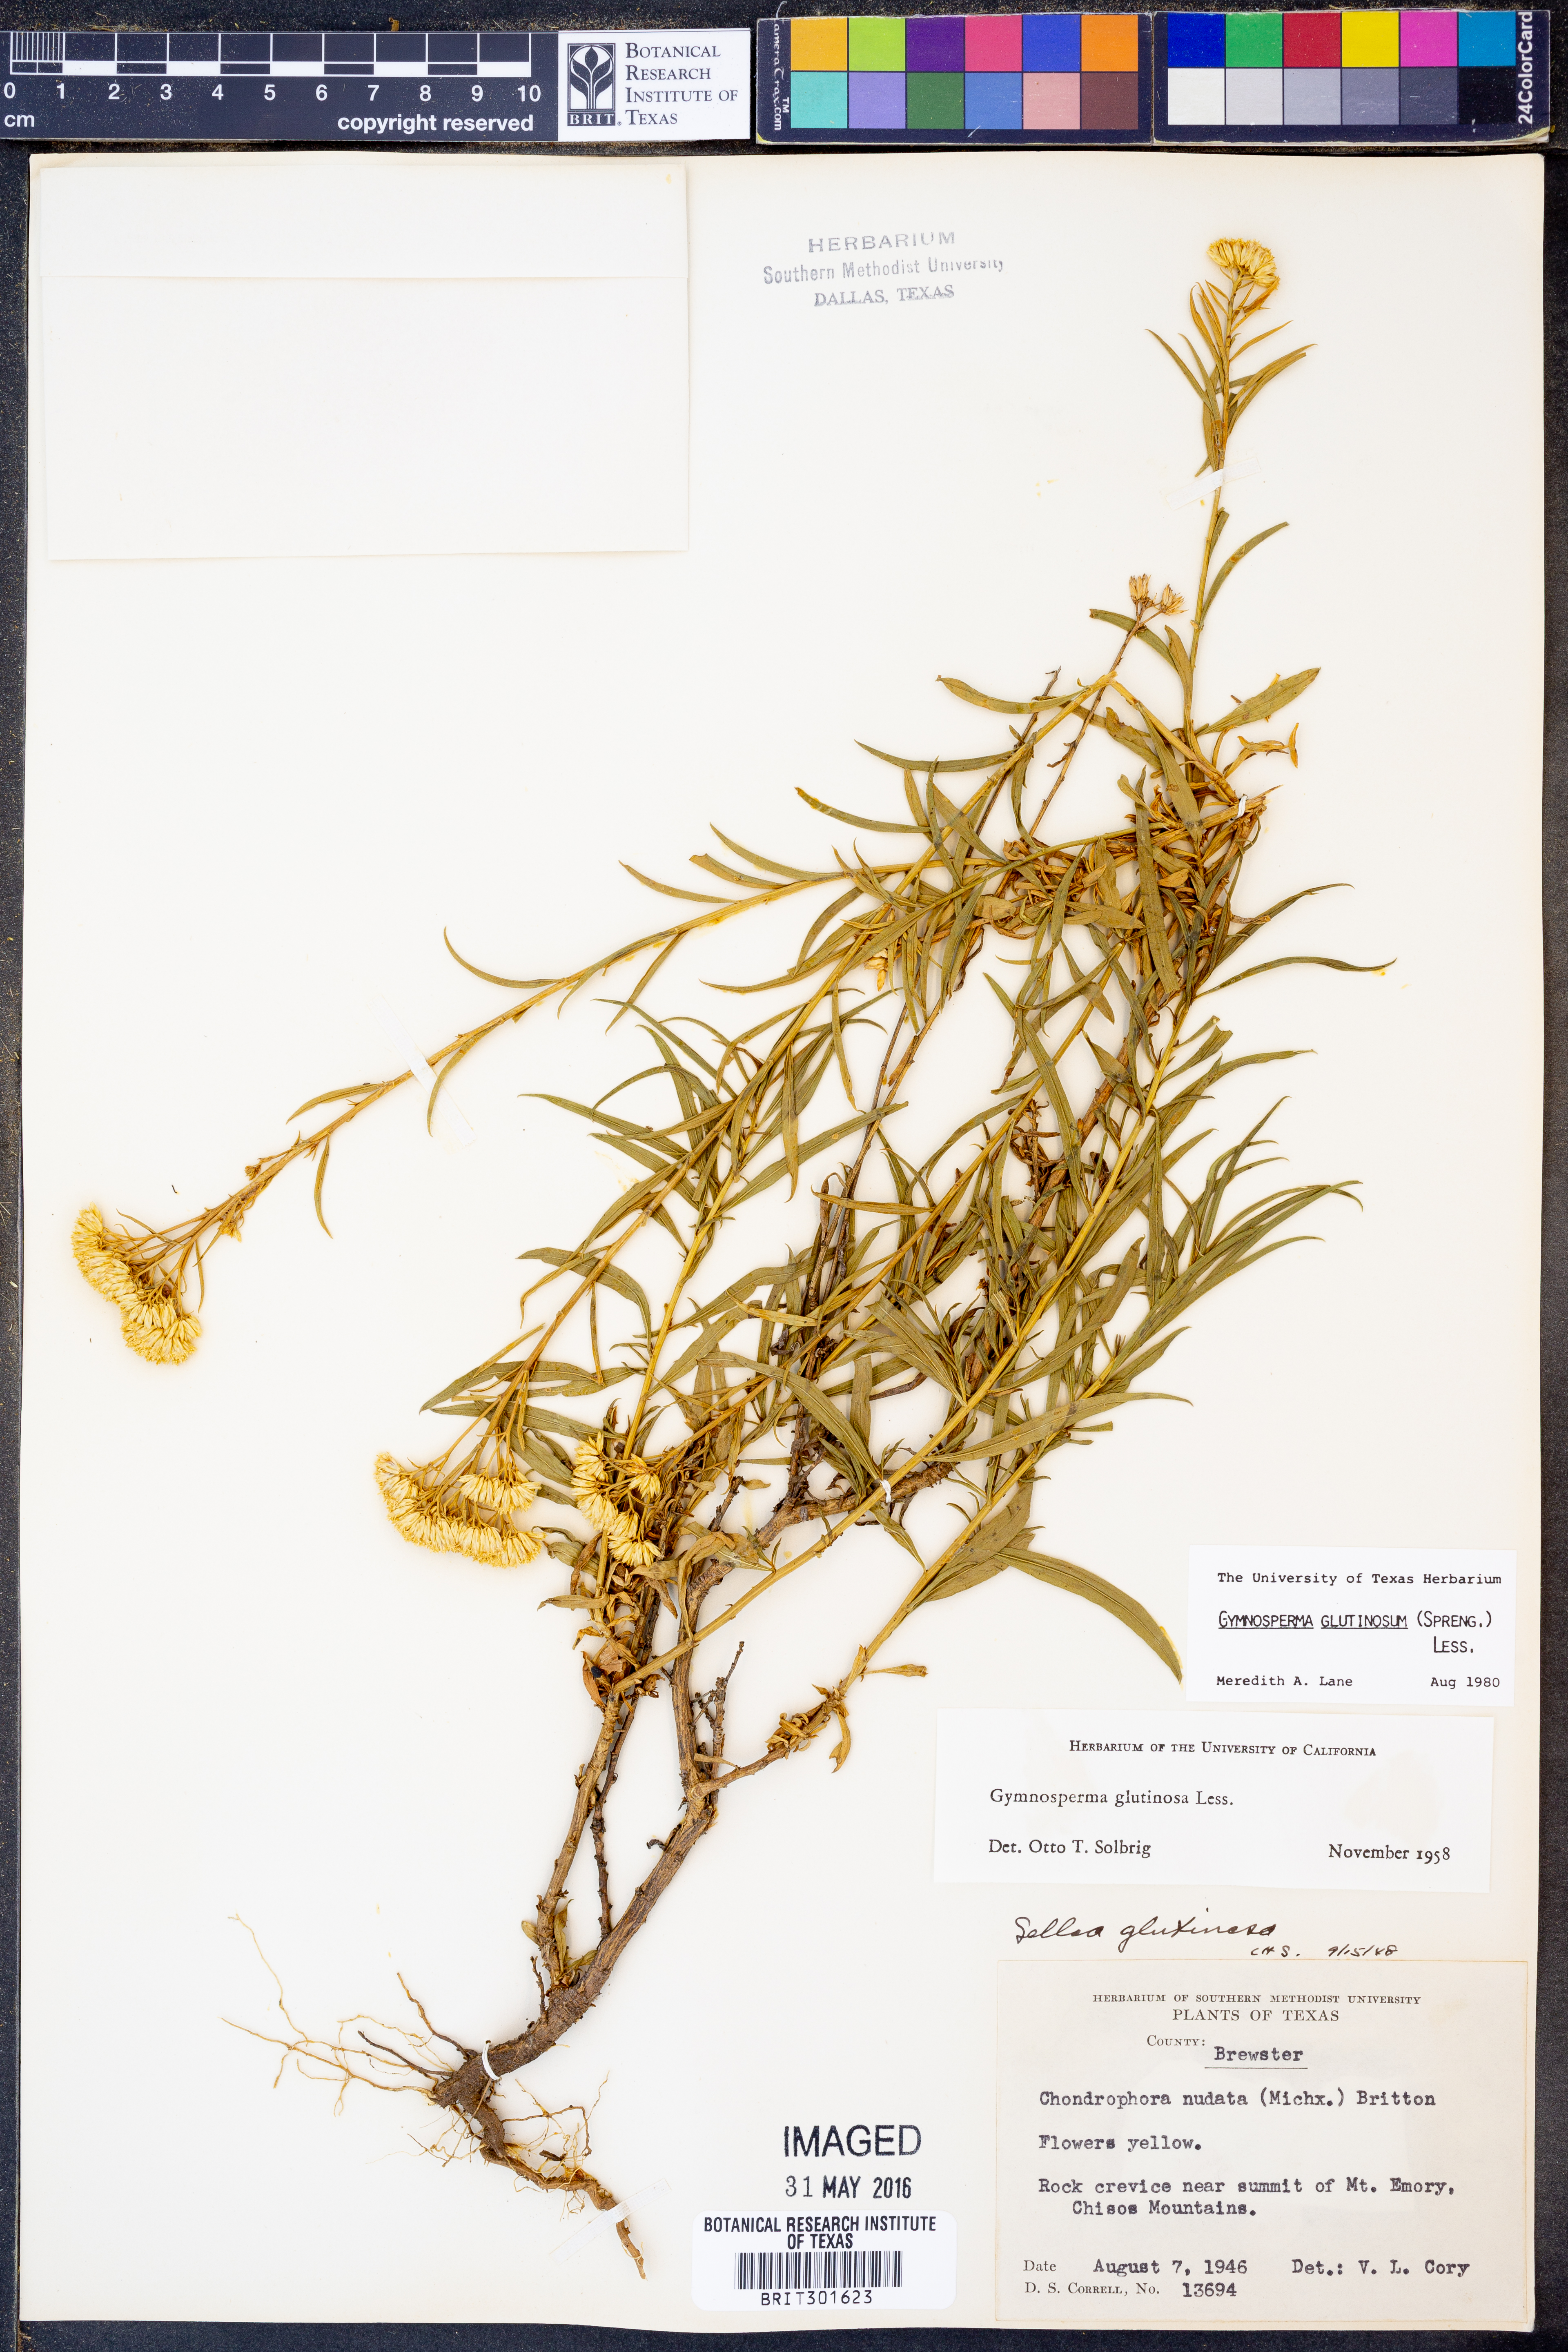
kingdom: Plantae
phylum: Tracheophyta
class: Magnoliopsida
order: Asterales
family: Asteraceae
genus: Gymnosperma
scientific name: Gymnosperma glutinosum
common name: Gumhead
